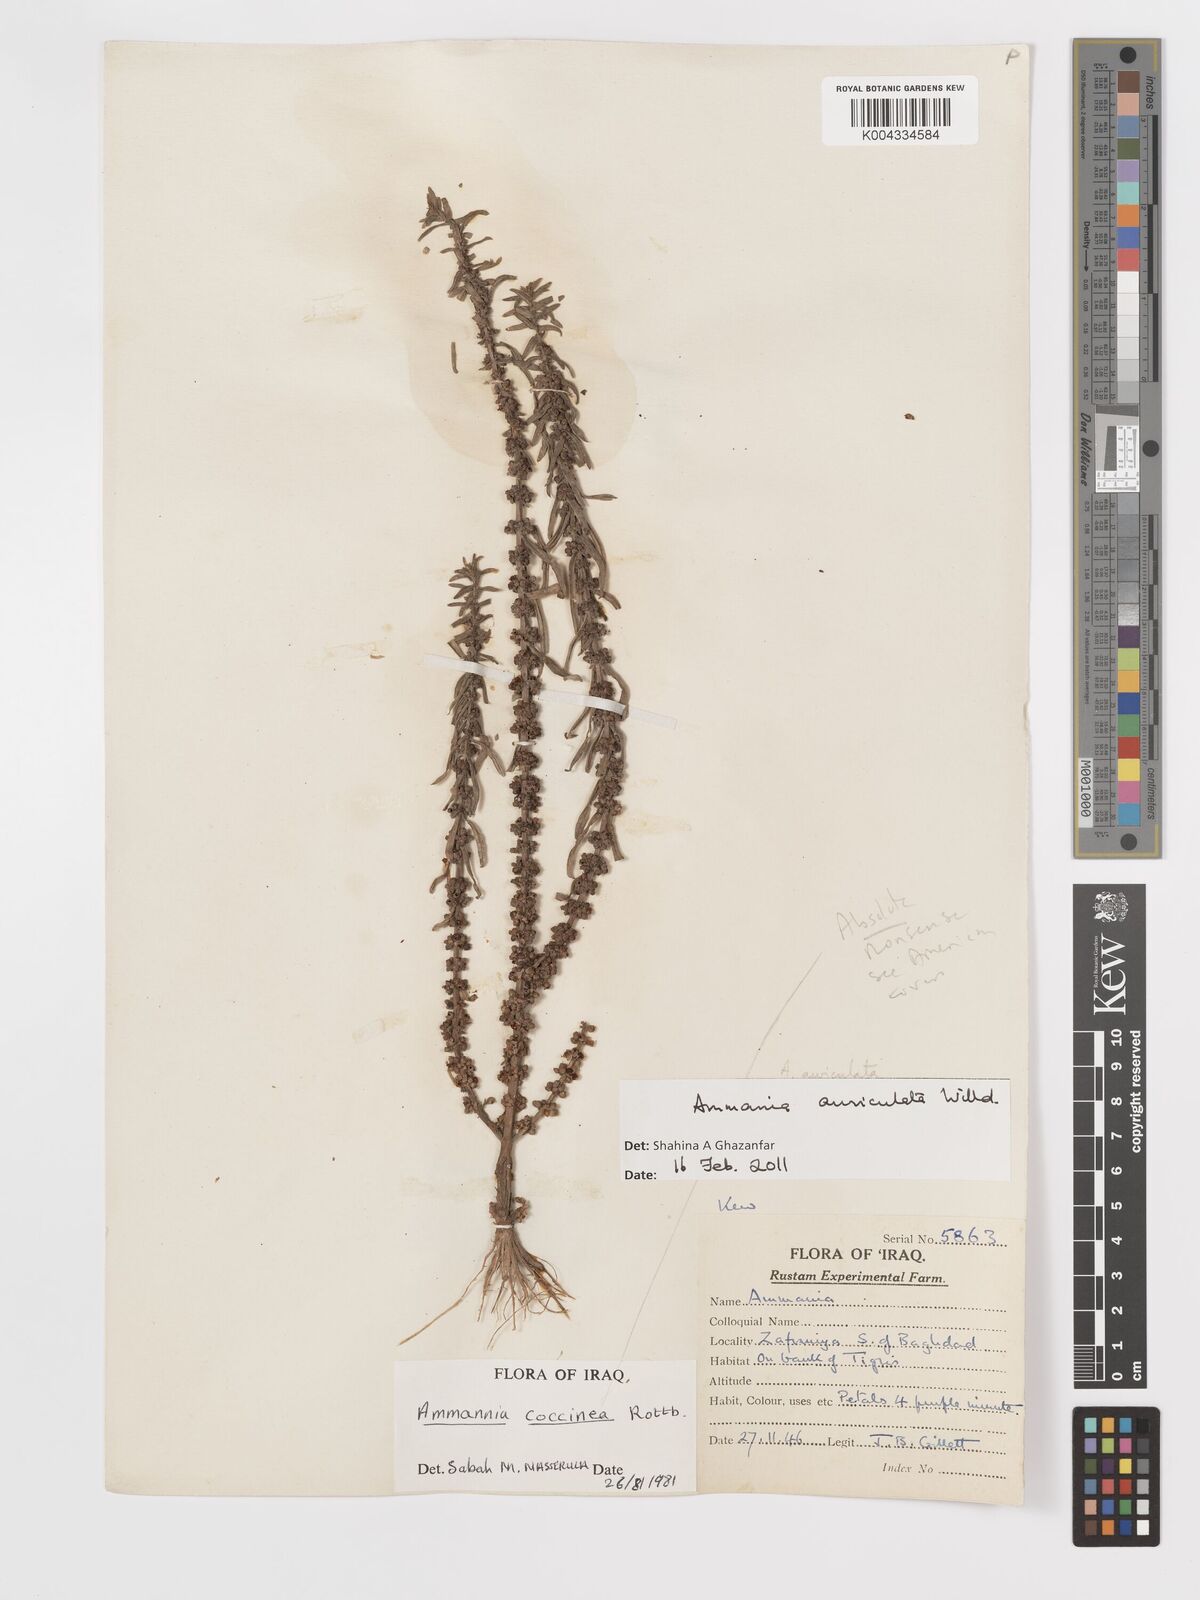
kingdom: Plantae
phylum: Tracheophyta
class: Magnoliopsida
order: Myrtales
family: Lythraceae
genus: Ammannia
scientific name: Ammannia auriculata
